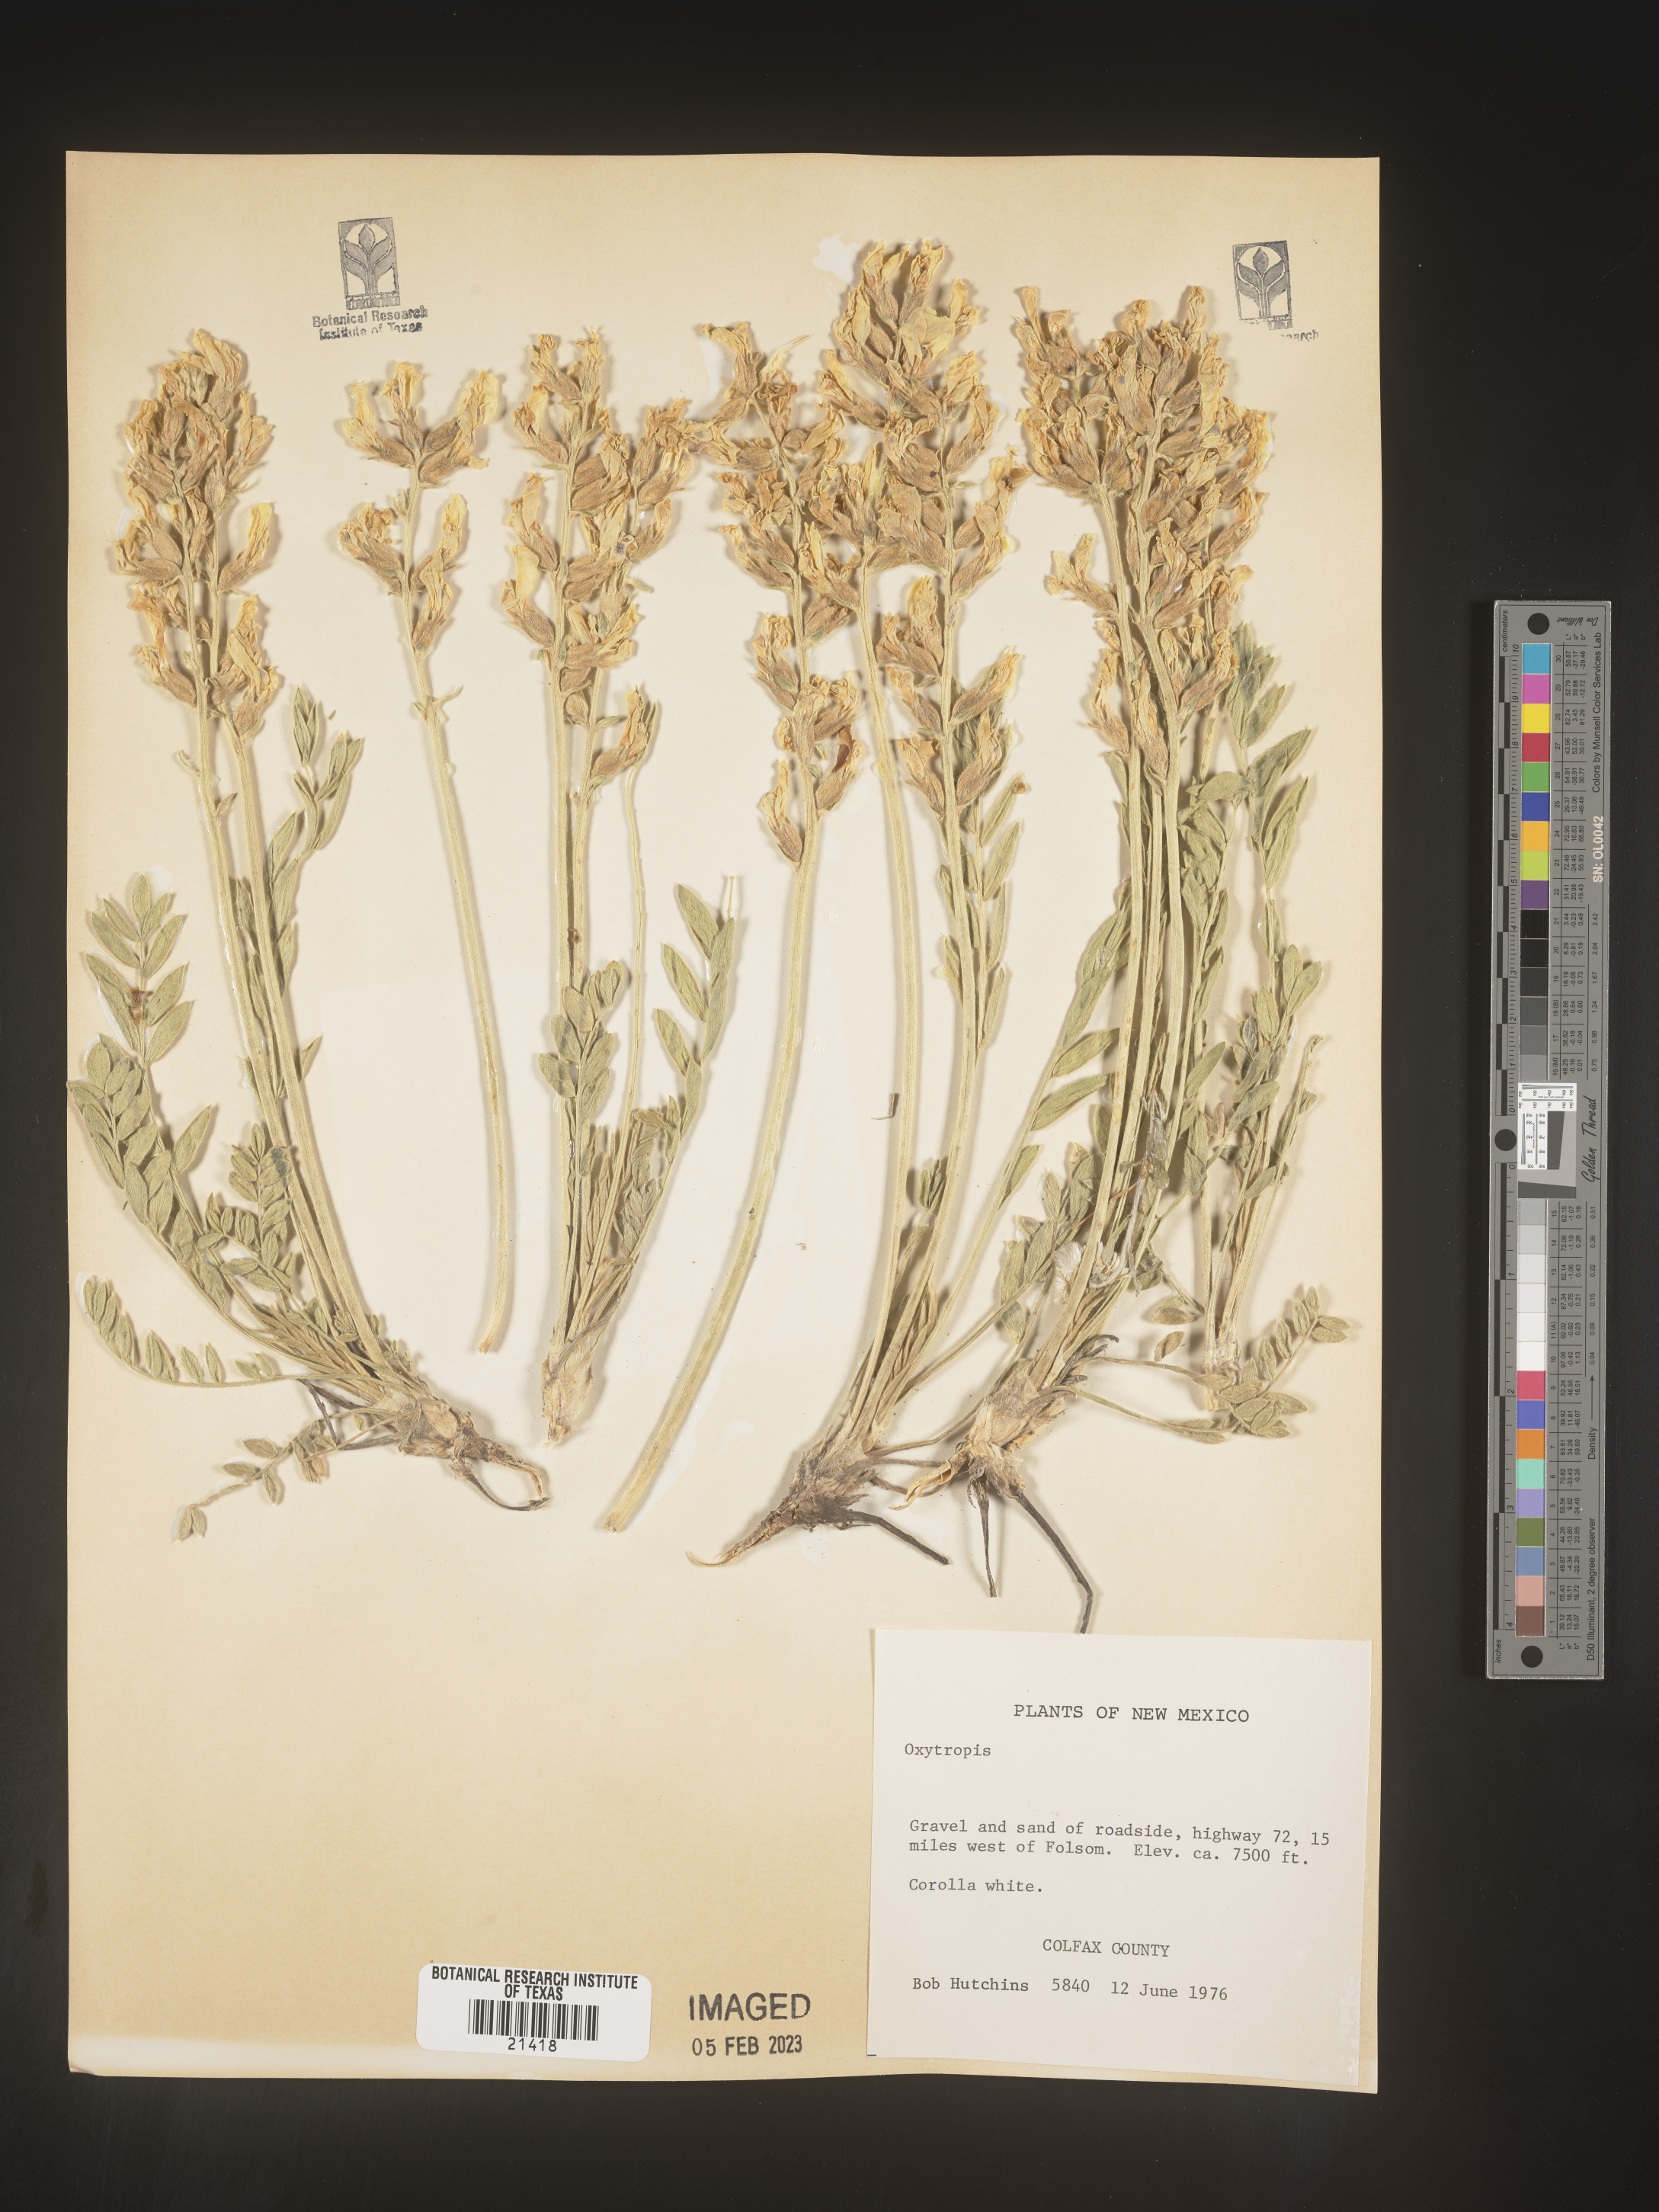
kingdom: Plantae
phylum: Tracheophyta
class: Magnoliopsida
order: Fabales
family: Fabaceae
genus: Oxytropis
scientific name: Oxytropis
